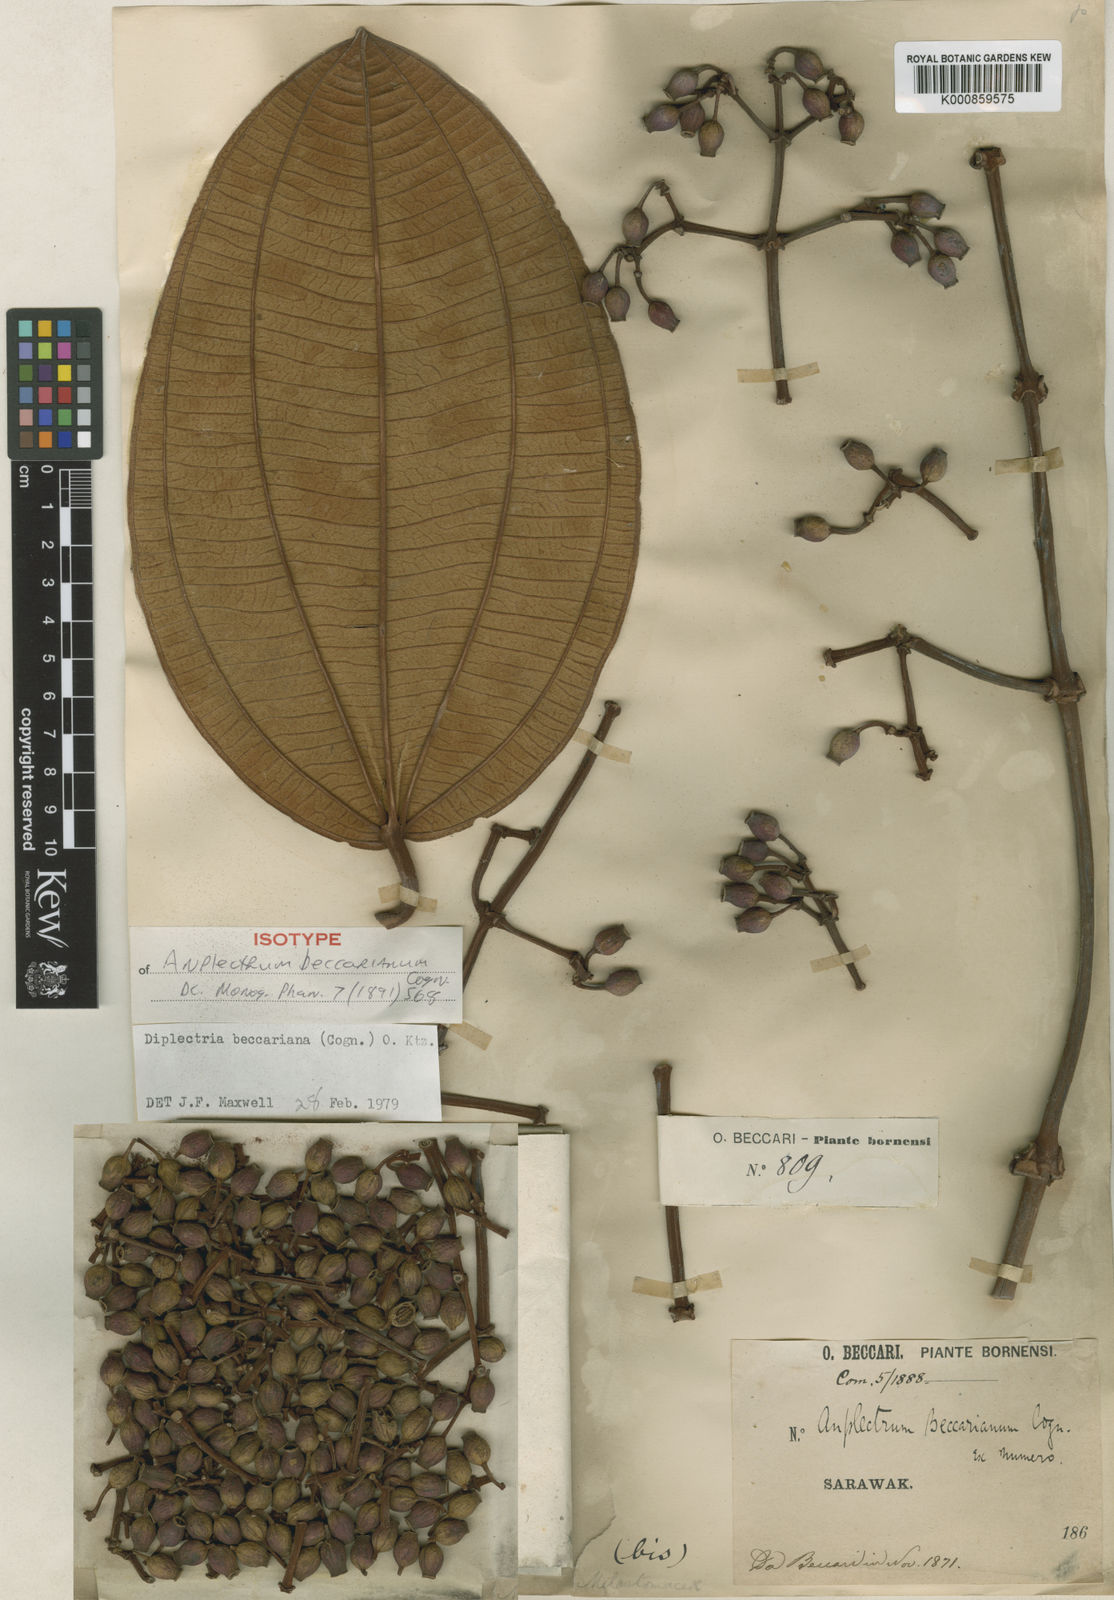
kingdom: Plantae
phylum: Tracheophyta
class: Magnoliopsida
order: Myrtales
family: Melastomataceae
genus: Dalenia
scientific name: Dalenia beccariana
